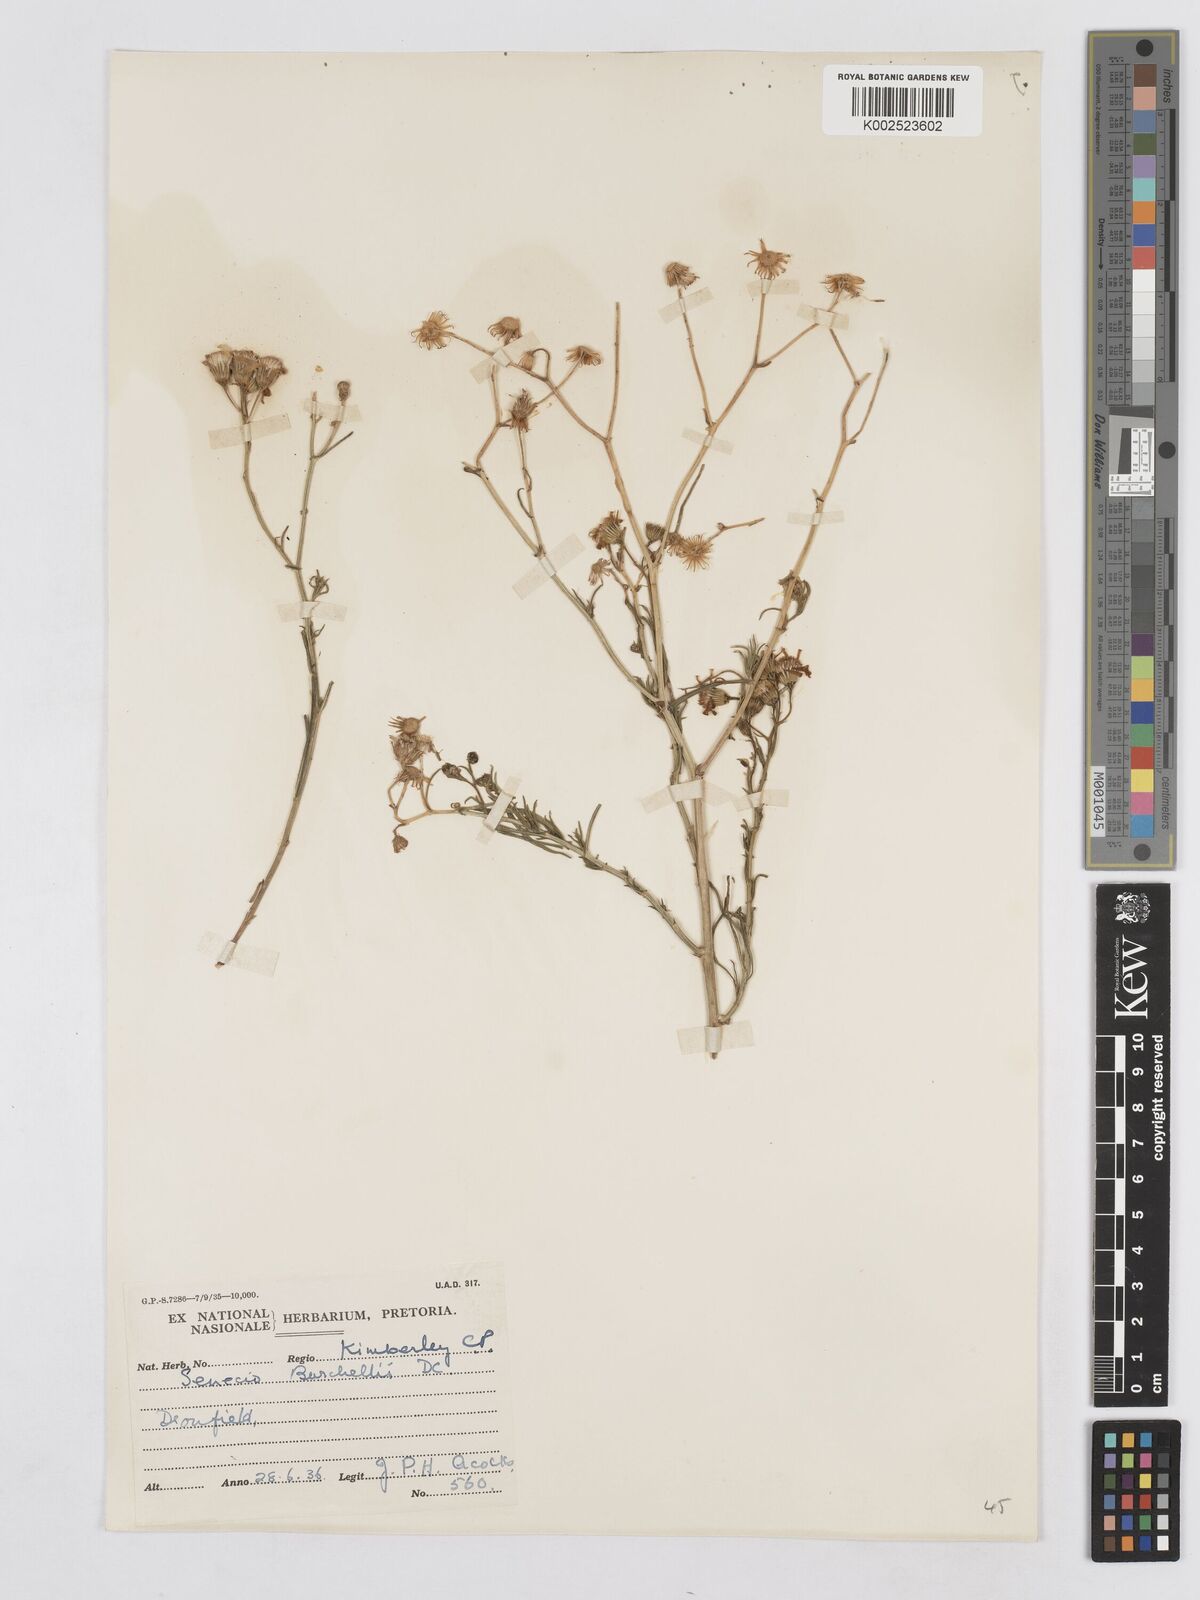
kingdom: Plantae
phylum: Tracheophyta
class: Magnoliopsida
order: Asterales
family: Asteraceae
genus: Senecio
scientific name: Senecio inaequidens
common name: Narrow-leaved ragwort
